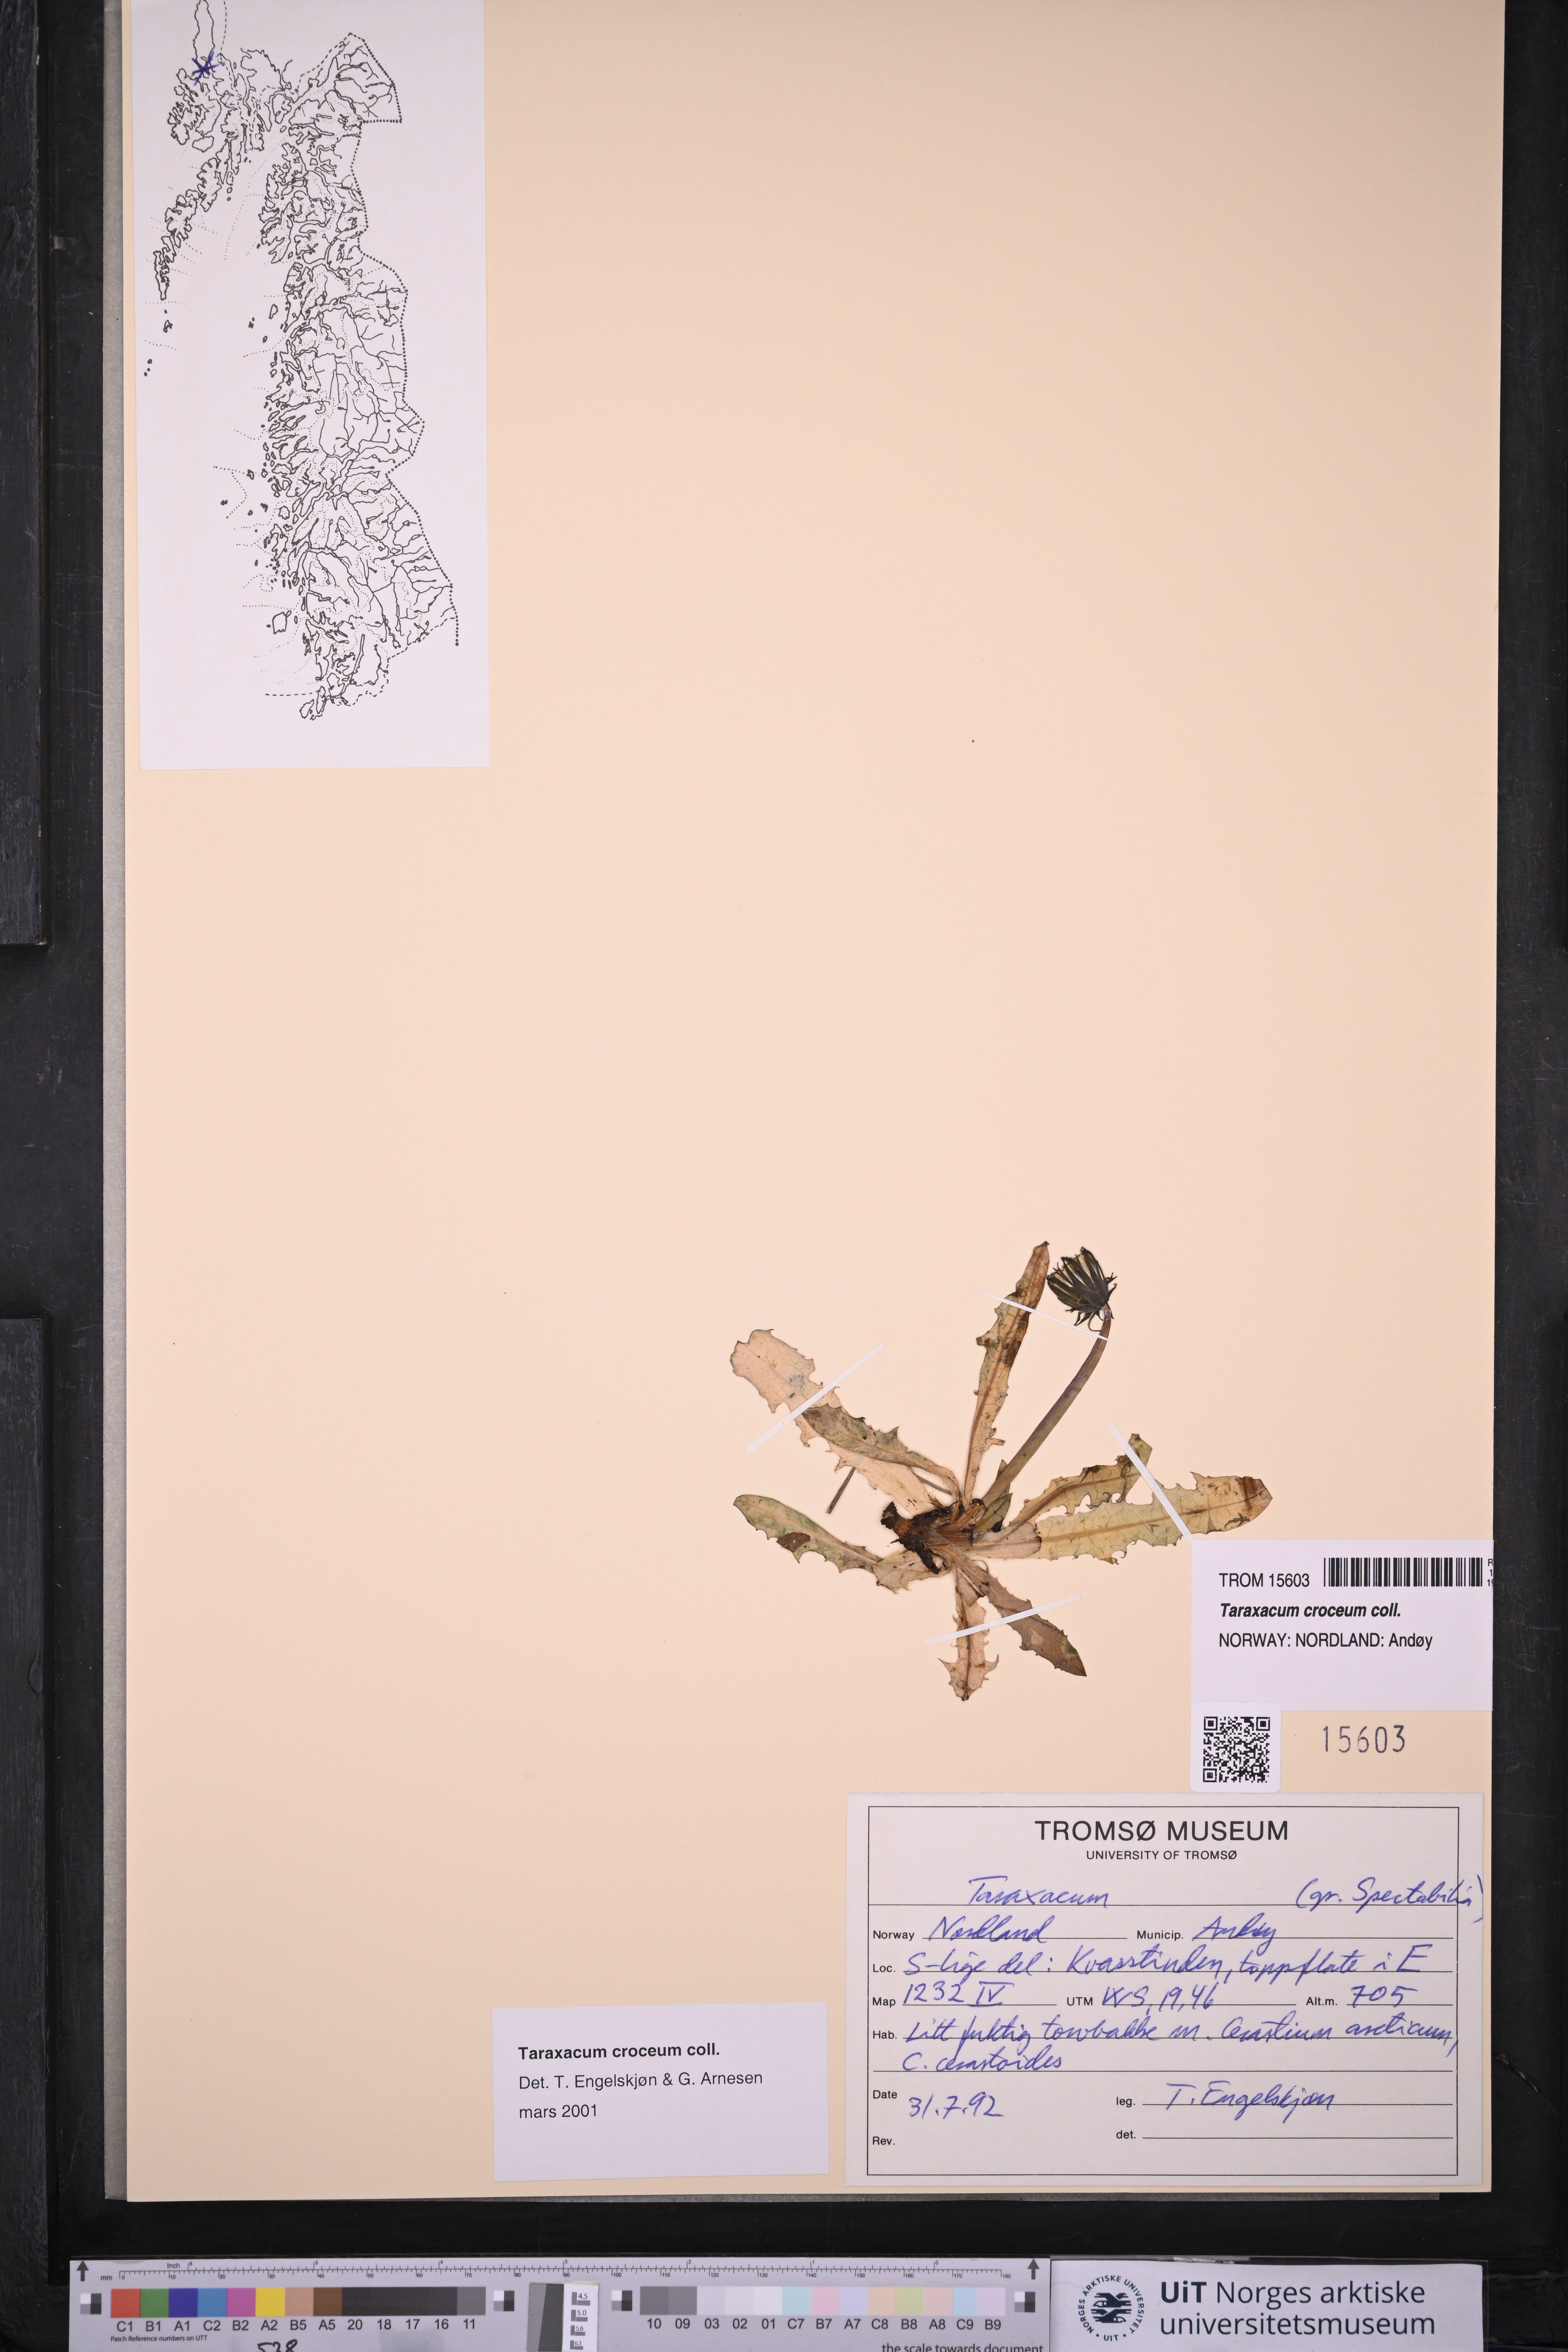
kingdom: Plantae
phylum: Tracheophyta
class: Magnoliopsida
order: Asterales
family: Asteraceae
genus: Taraxacum
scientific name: Taraxacum croceum
